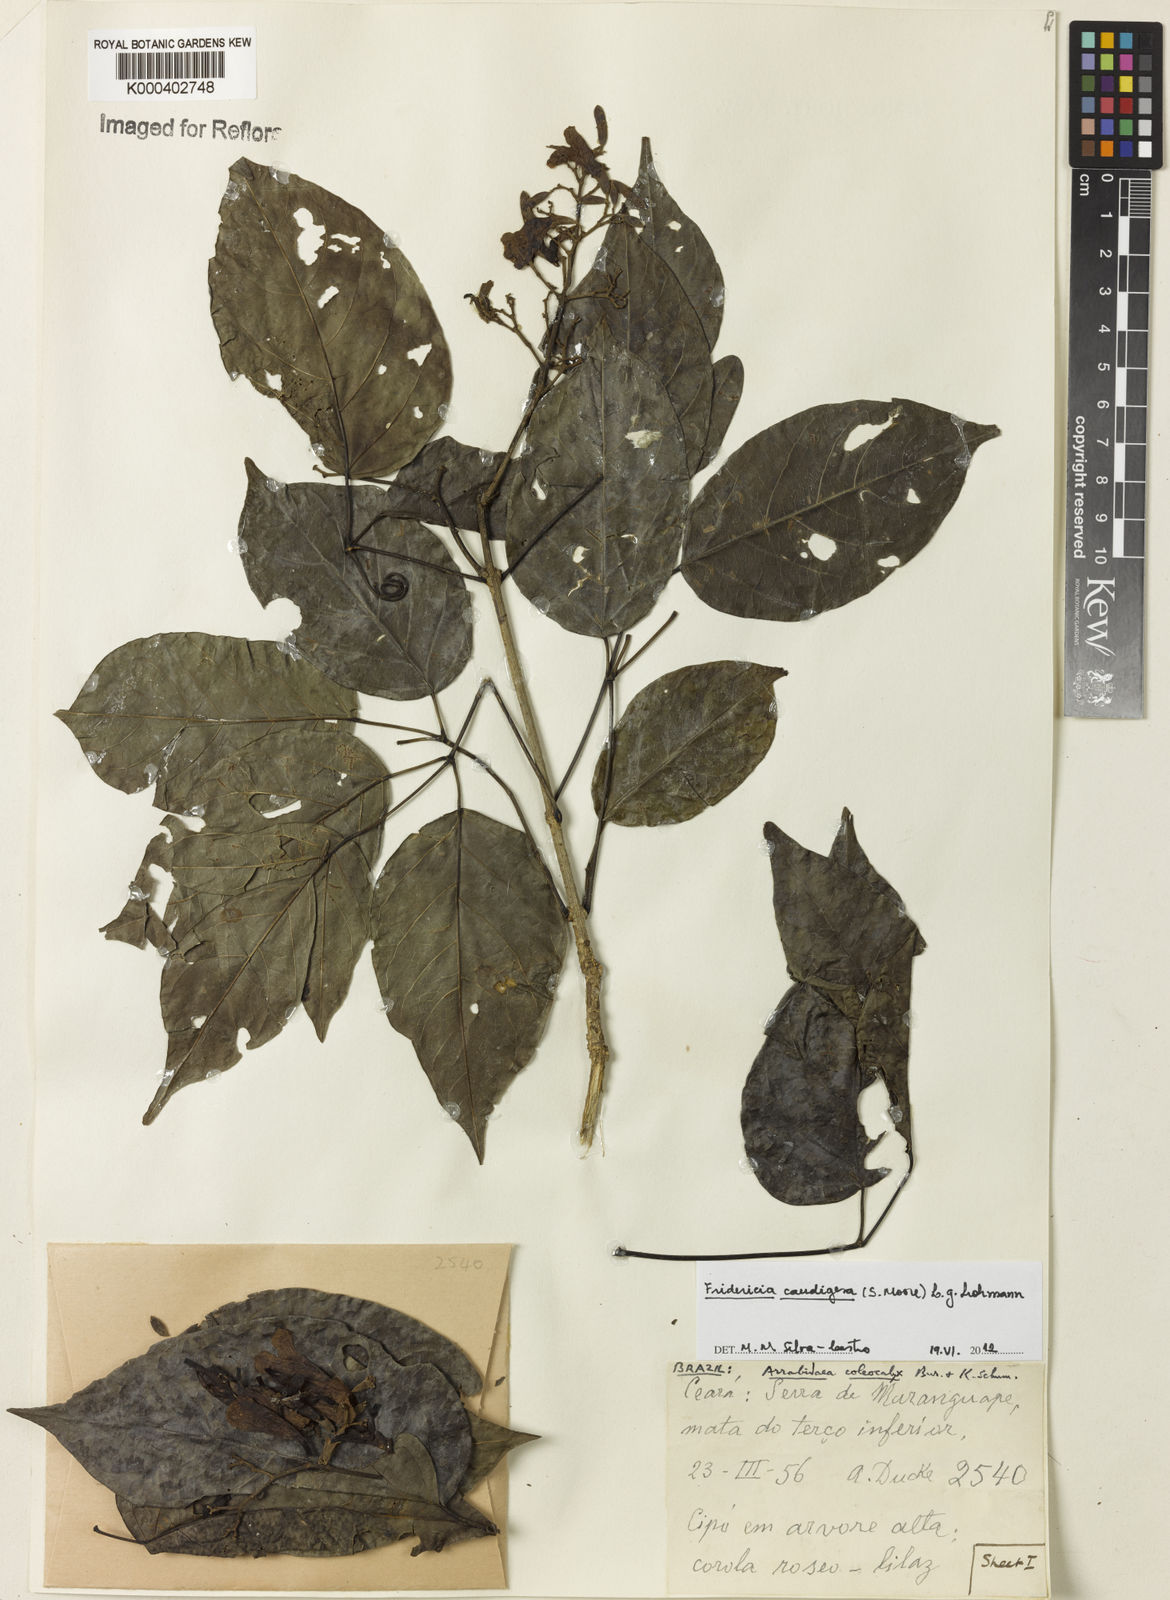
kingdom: Plantae
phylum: Tracheophyta
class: Magnoliopsida
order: Lamiales
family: Bignoniaceae
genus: Fridericia
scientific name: Fridericia caudigera
